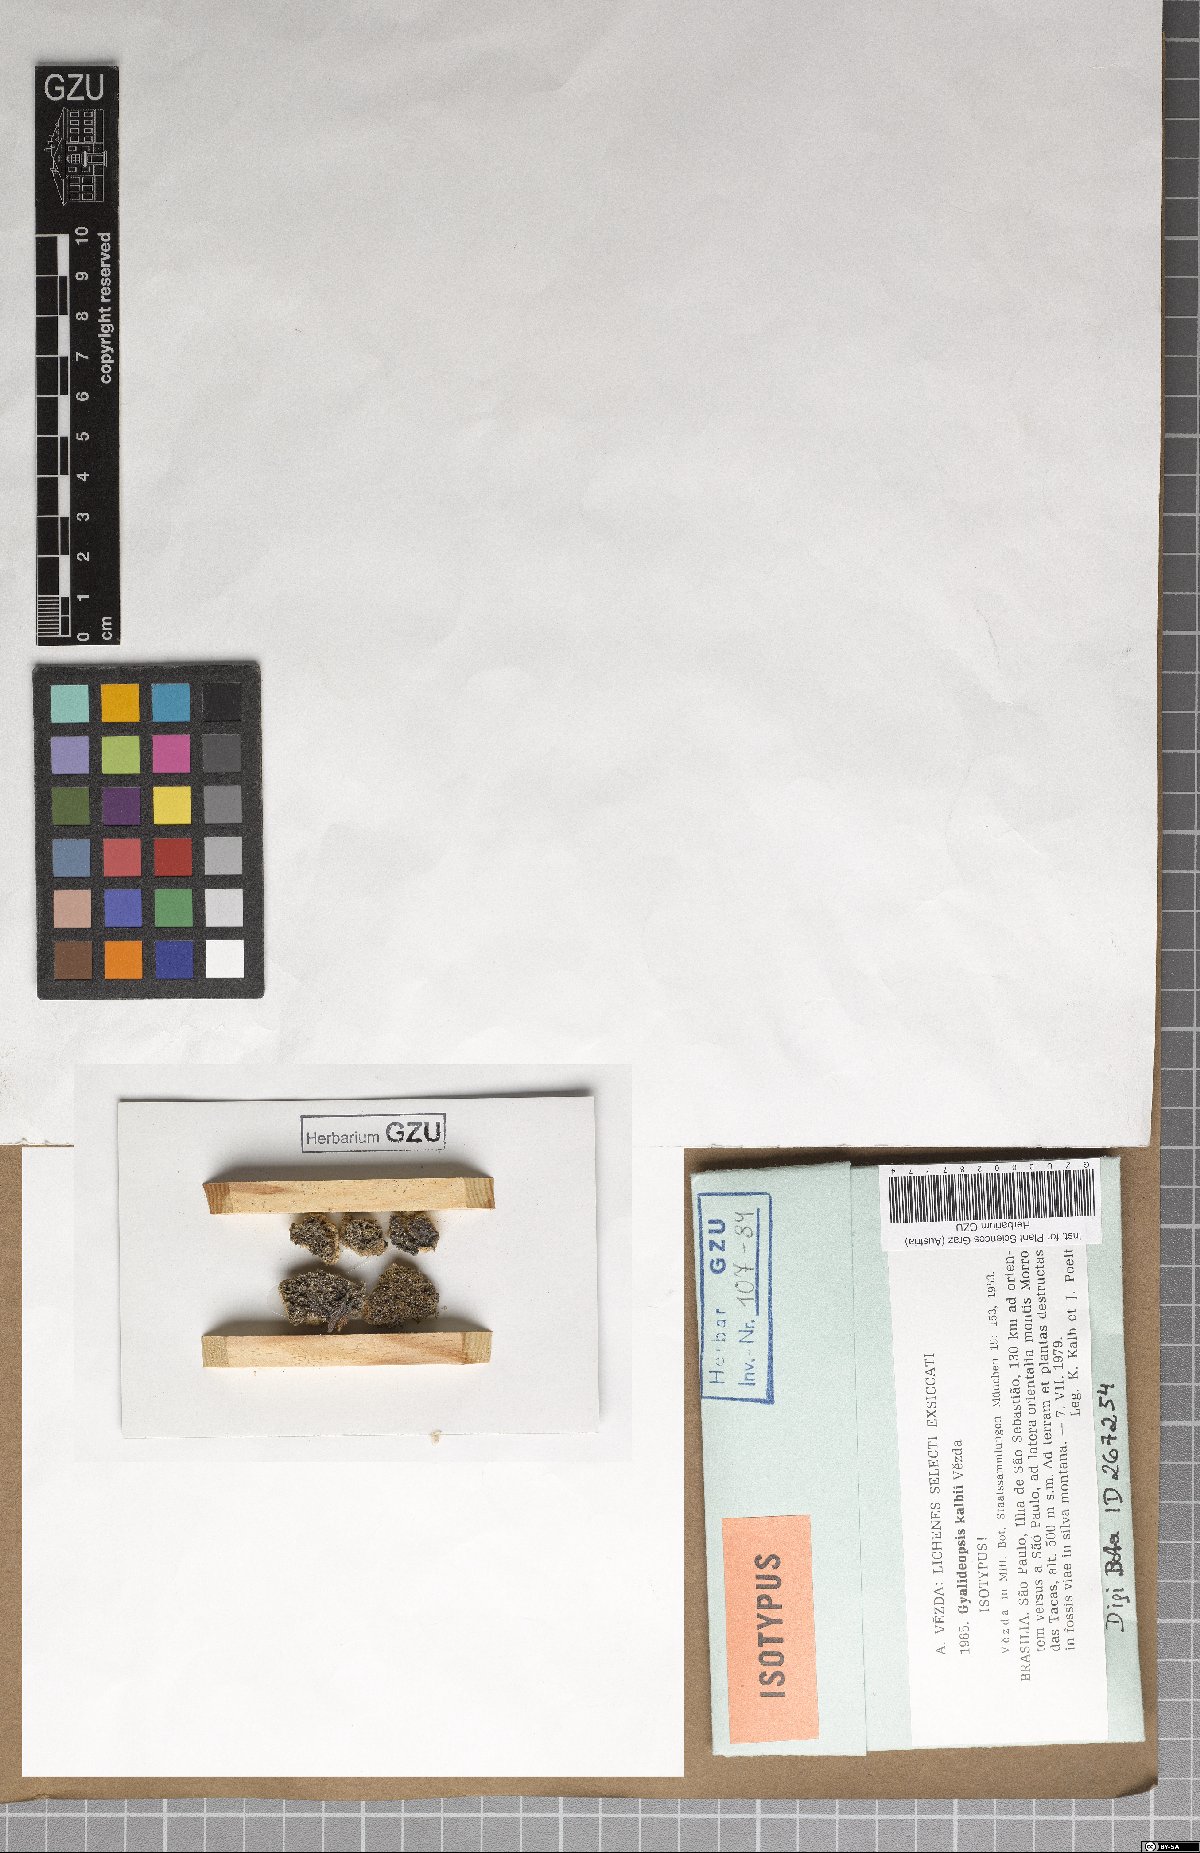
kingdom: Fungi
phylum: Ascomycota
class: Lecanoromycetes
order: Ostropales
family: Gomphillaceae
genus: Gyalideopsis
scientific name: Gyalideopsis kalbii
